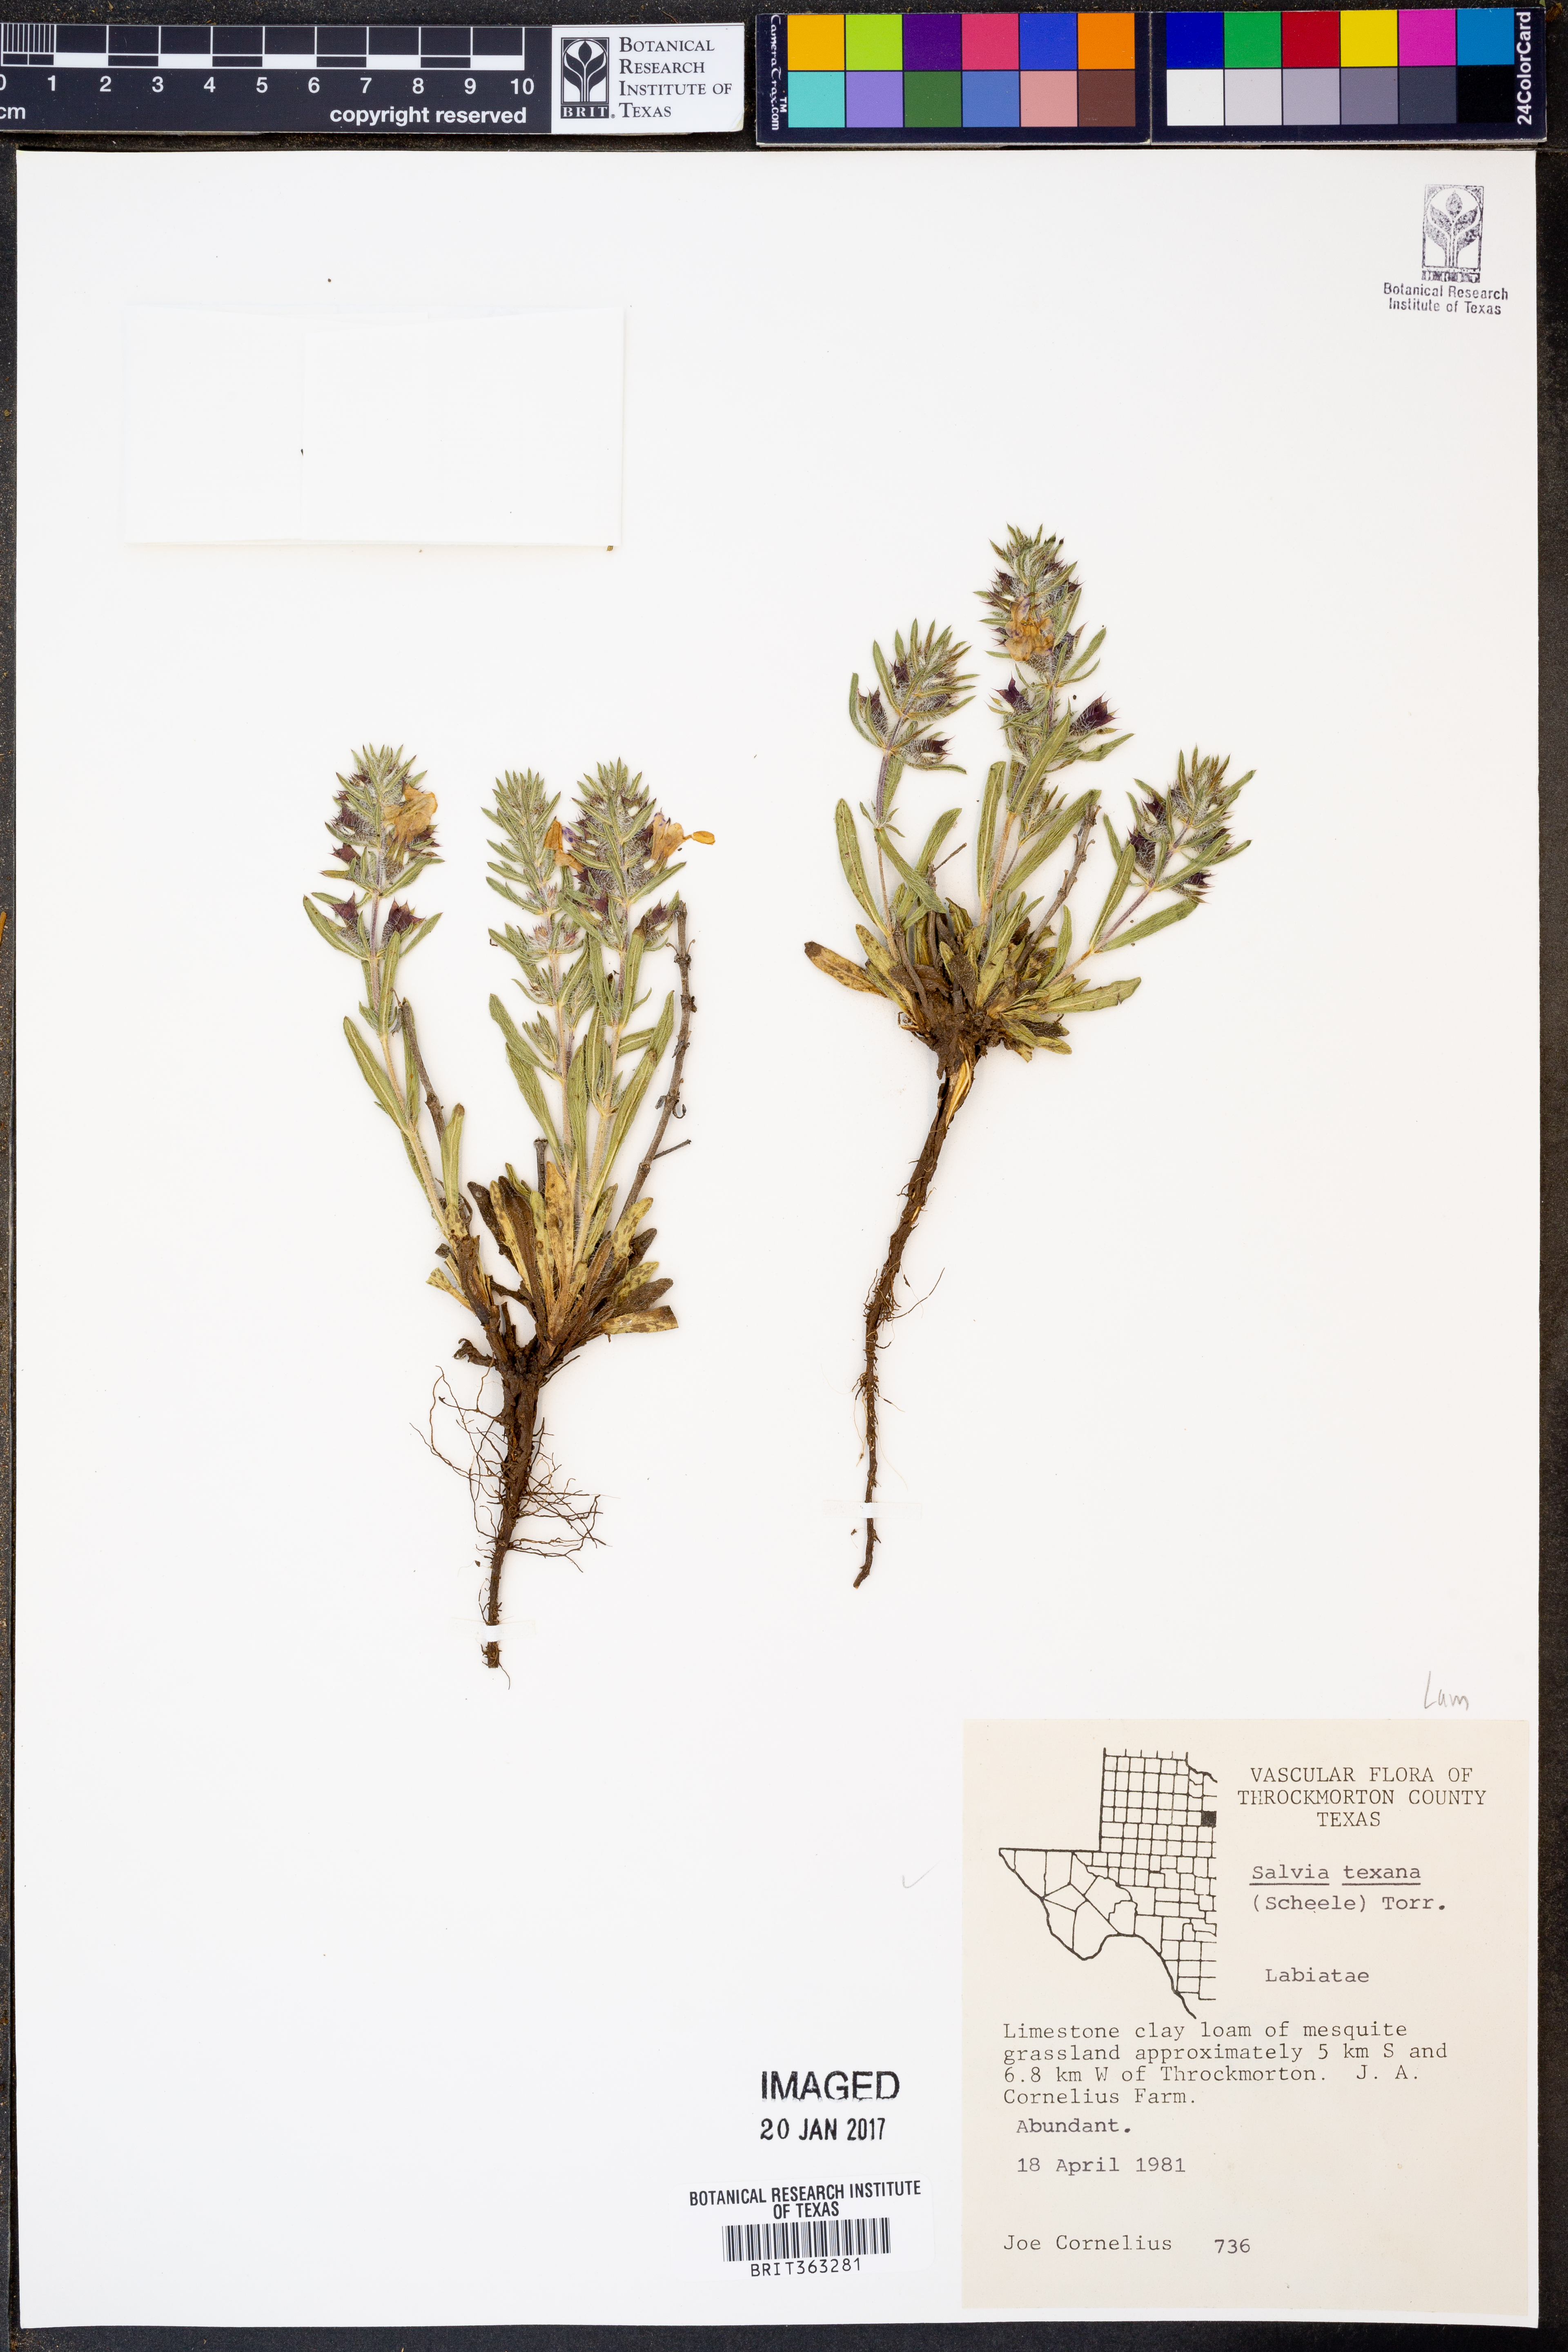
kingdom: Plantae
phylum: Tracheophyta
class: Magnoliopsida
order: Lamiales
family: Lamiaceae
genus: Salvia
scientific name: Salvia texana
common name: Texas sage
